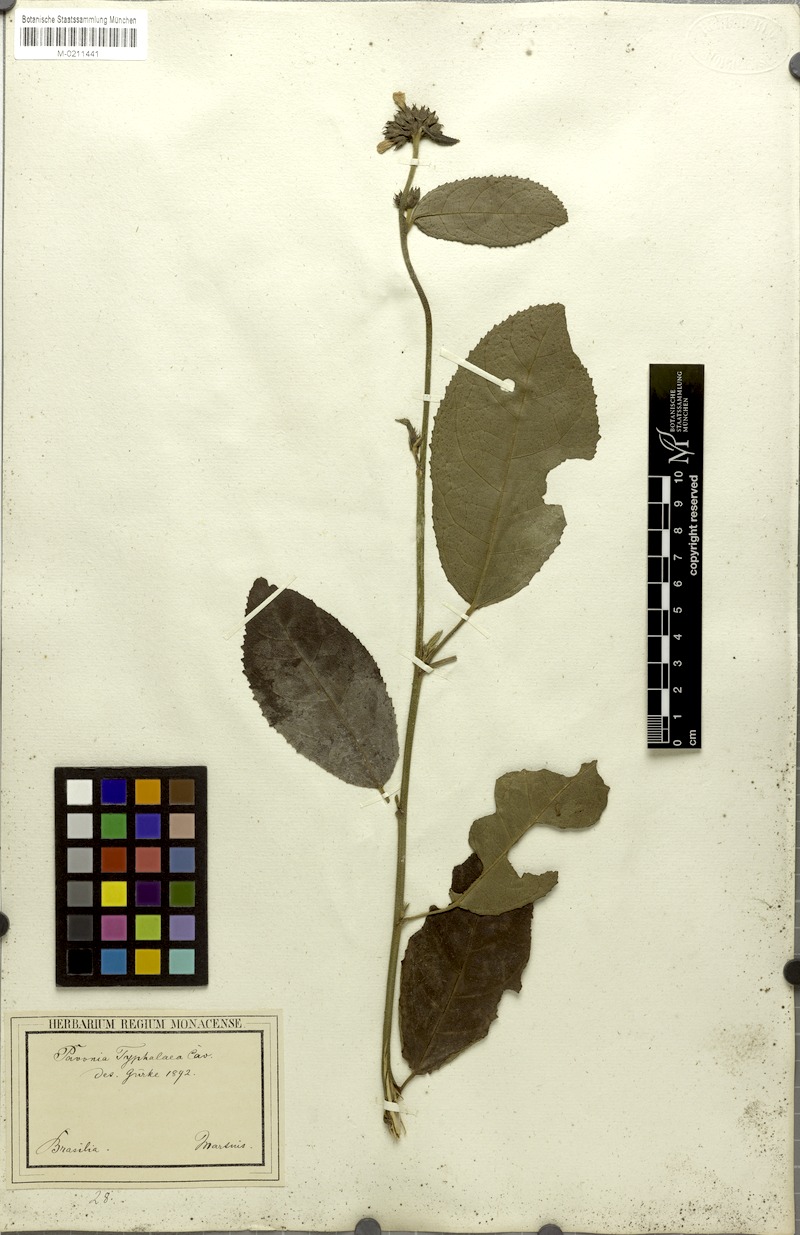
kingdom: Plantae
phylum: Tracheophyta
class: Magnoliopsida
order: Malvales
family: Malvaceae
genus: Pavonia
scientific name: Pavonia fruticosa
